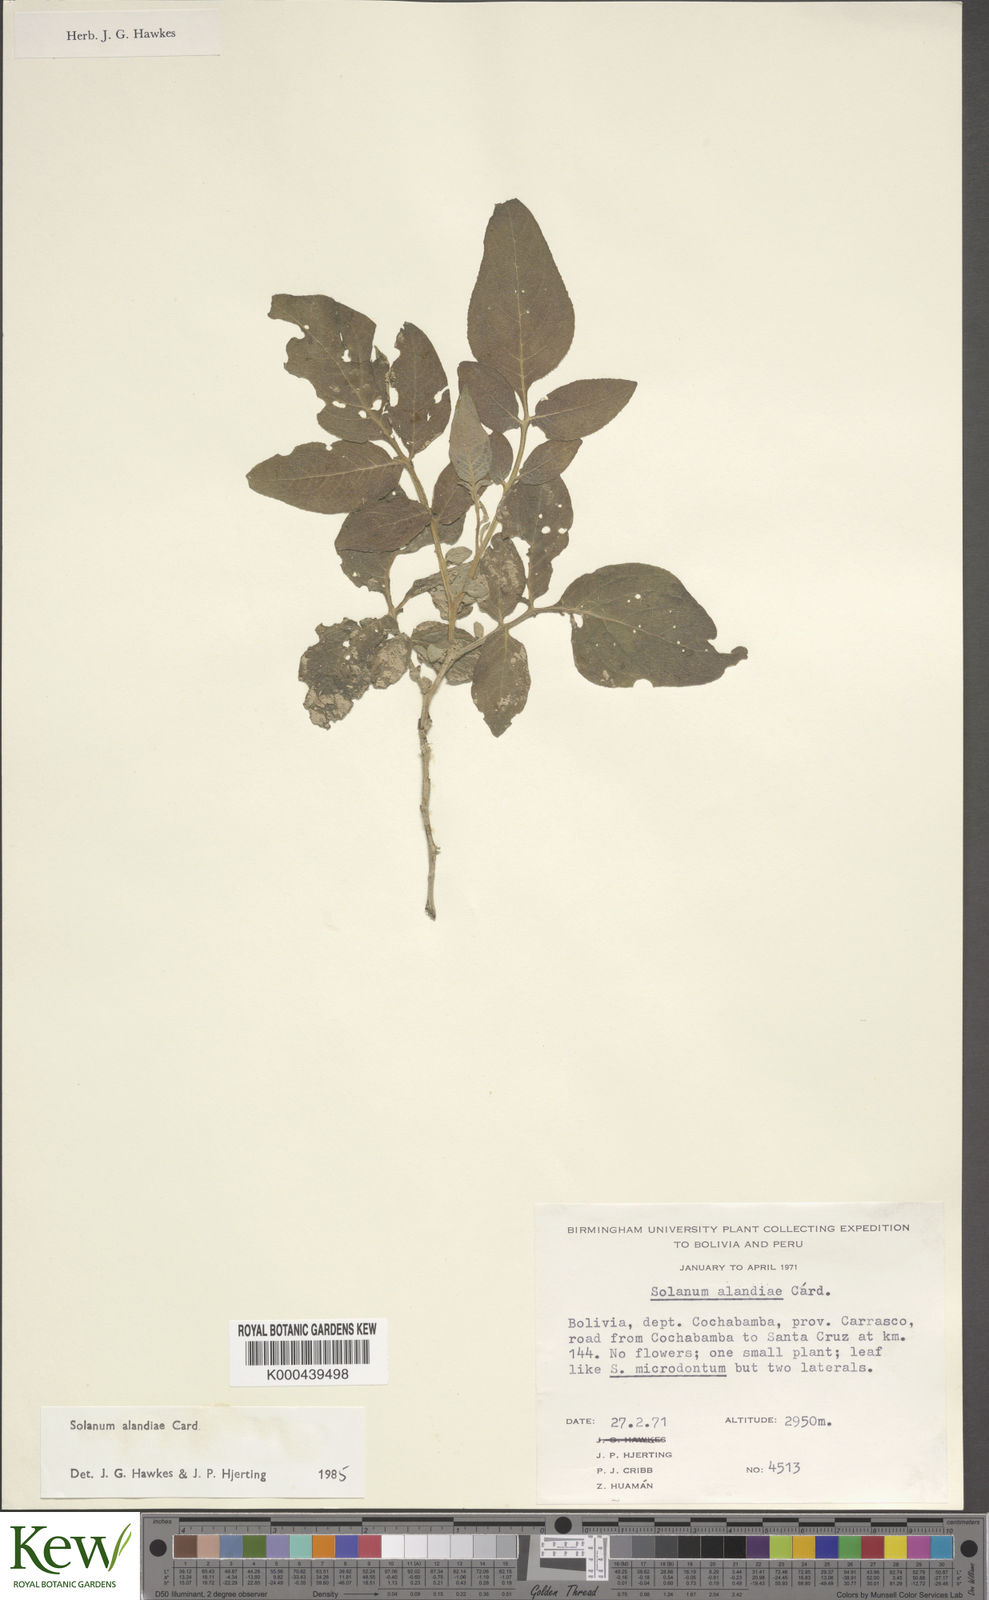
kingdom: Plantae
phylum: Tracheophyta
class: Magnoliopsida
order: Solanales
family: Solanaceae
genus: Solanum
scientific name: Solanum brevicaule
